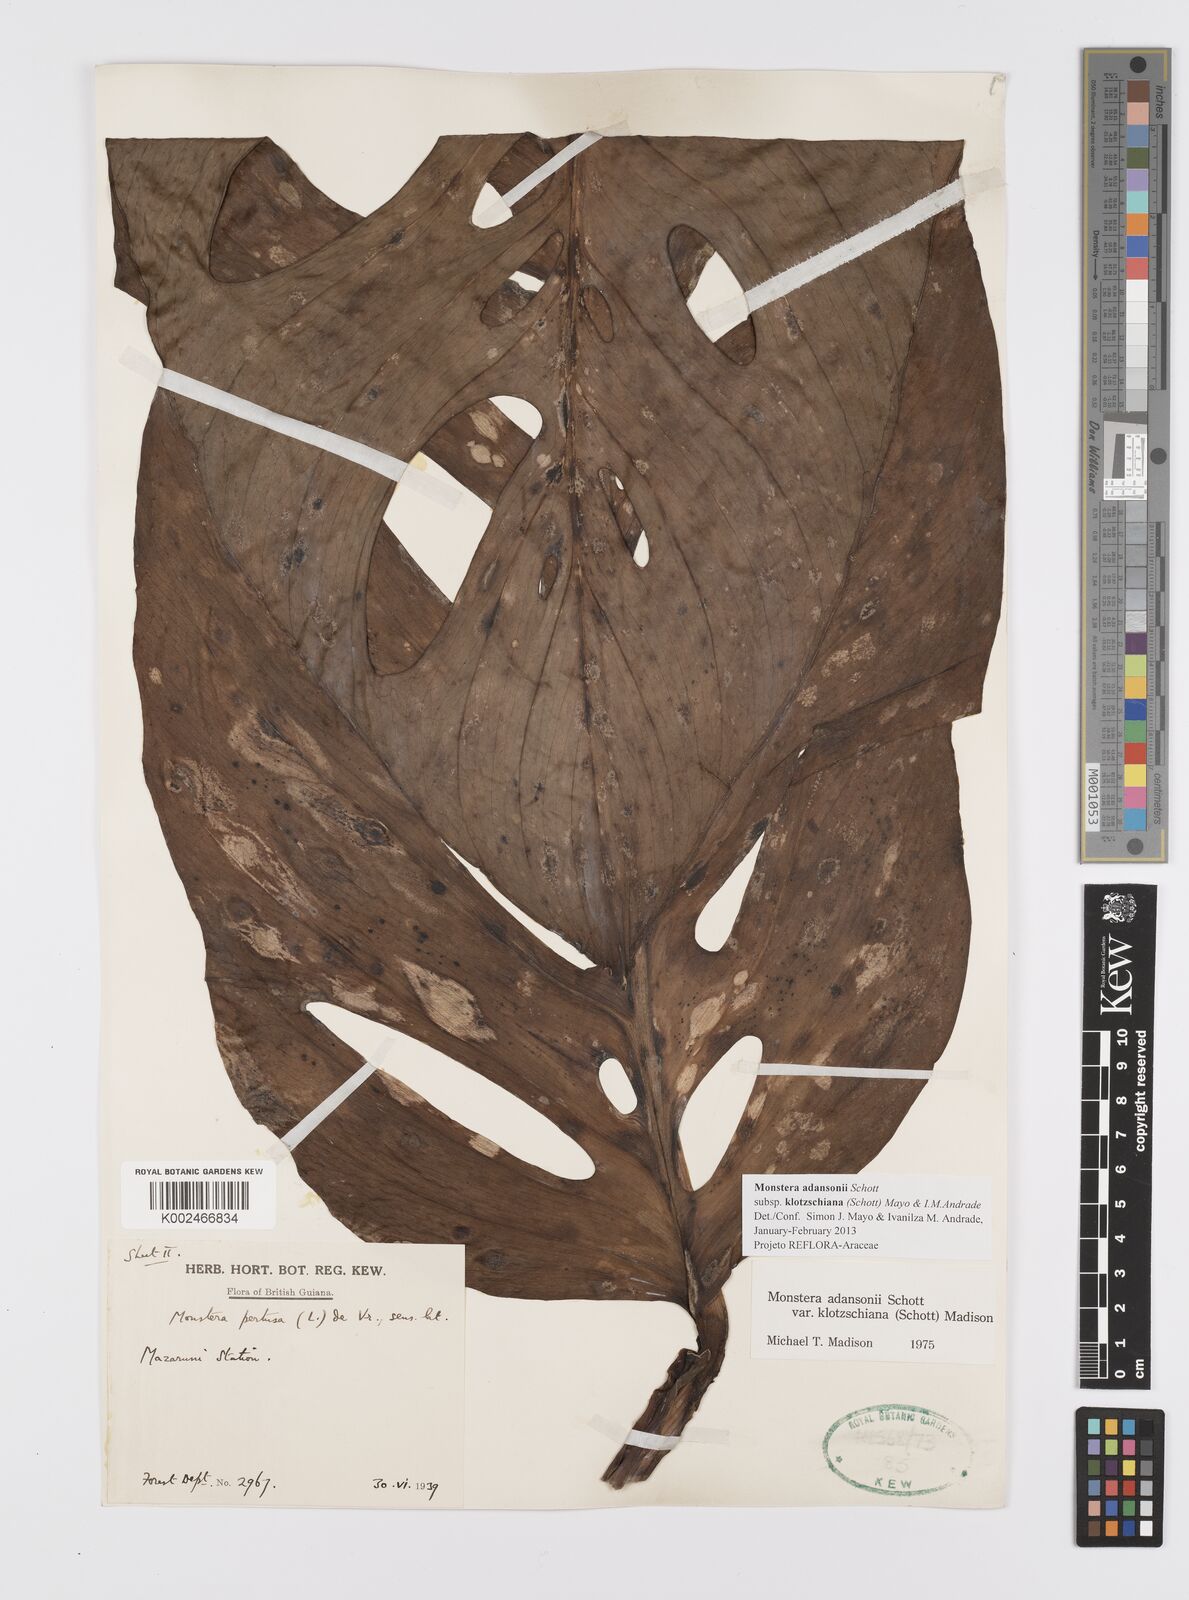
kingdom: Plantae
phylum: Tracheophyta
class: Liliopsida
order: Alismatales
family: Araceae
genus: Monstera
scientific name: Monstera adansonii
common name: Tarovine
